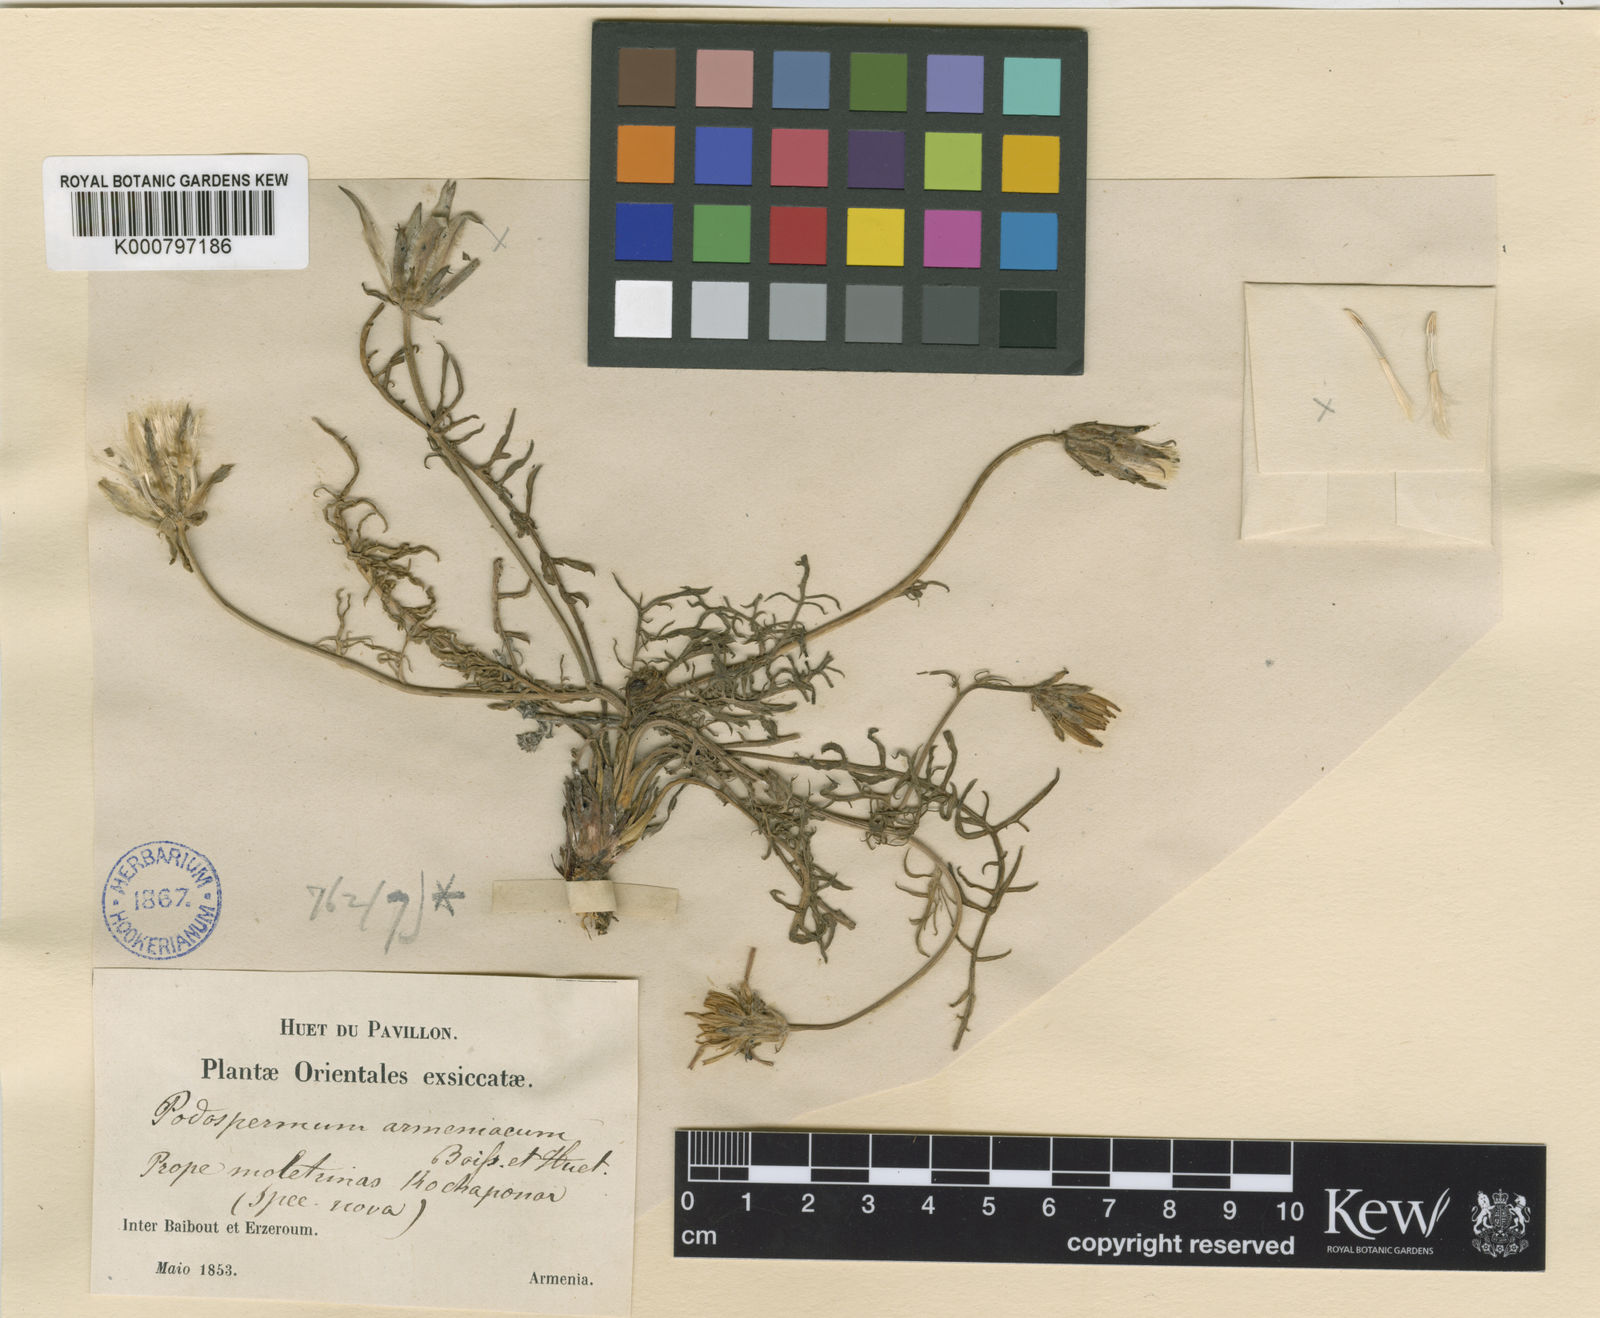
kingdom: Plantae
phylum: Tracheophyta
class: Magnoliopsida
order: Asterales
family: Asteraceae
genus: Scorzonera
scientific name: Scorzonera armeniaca
